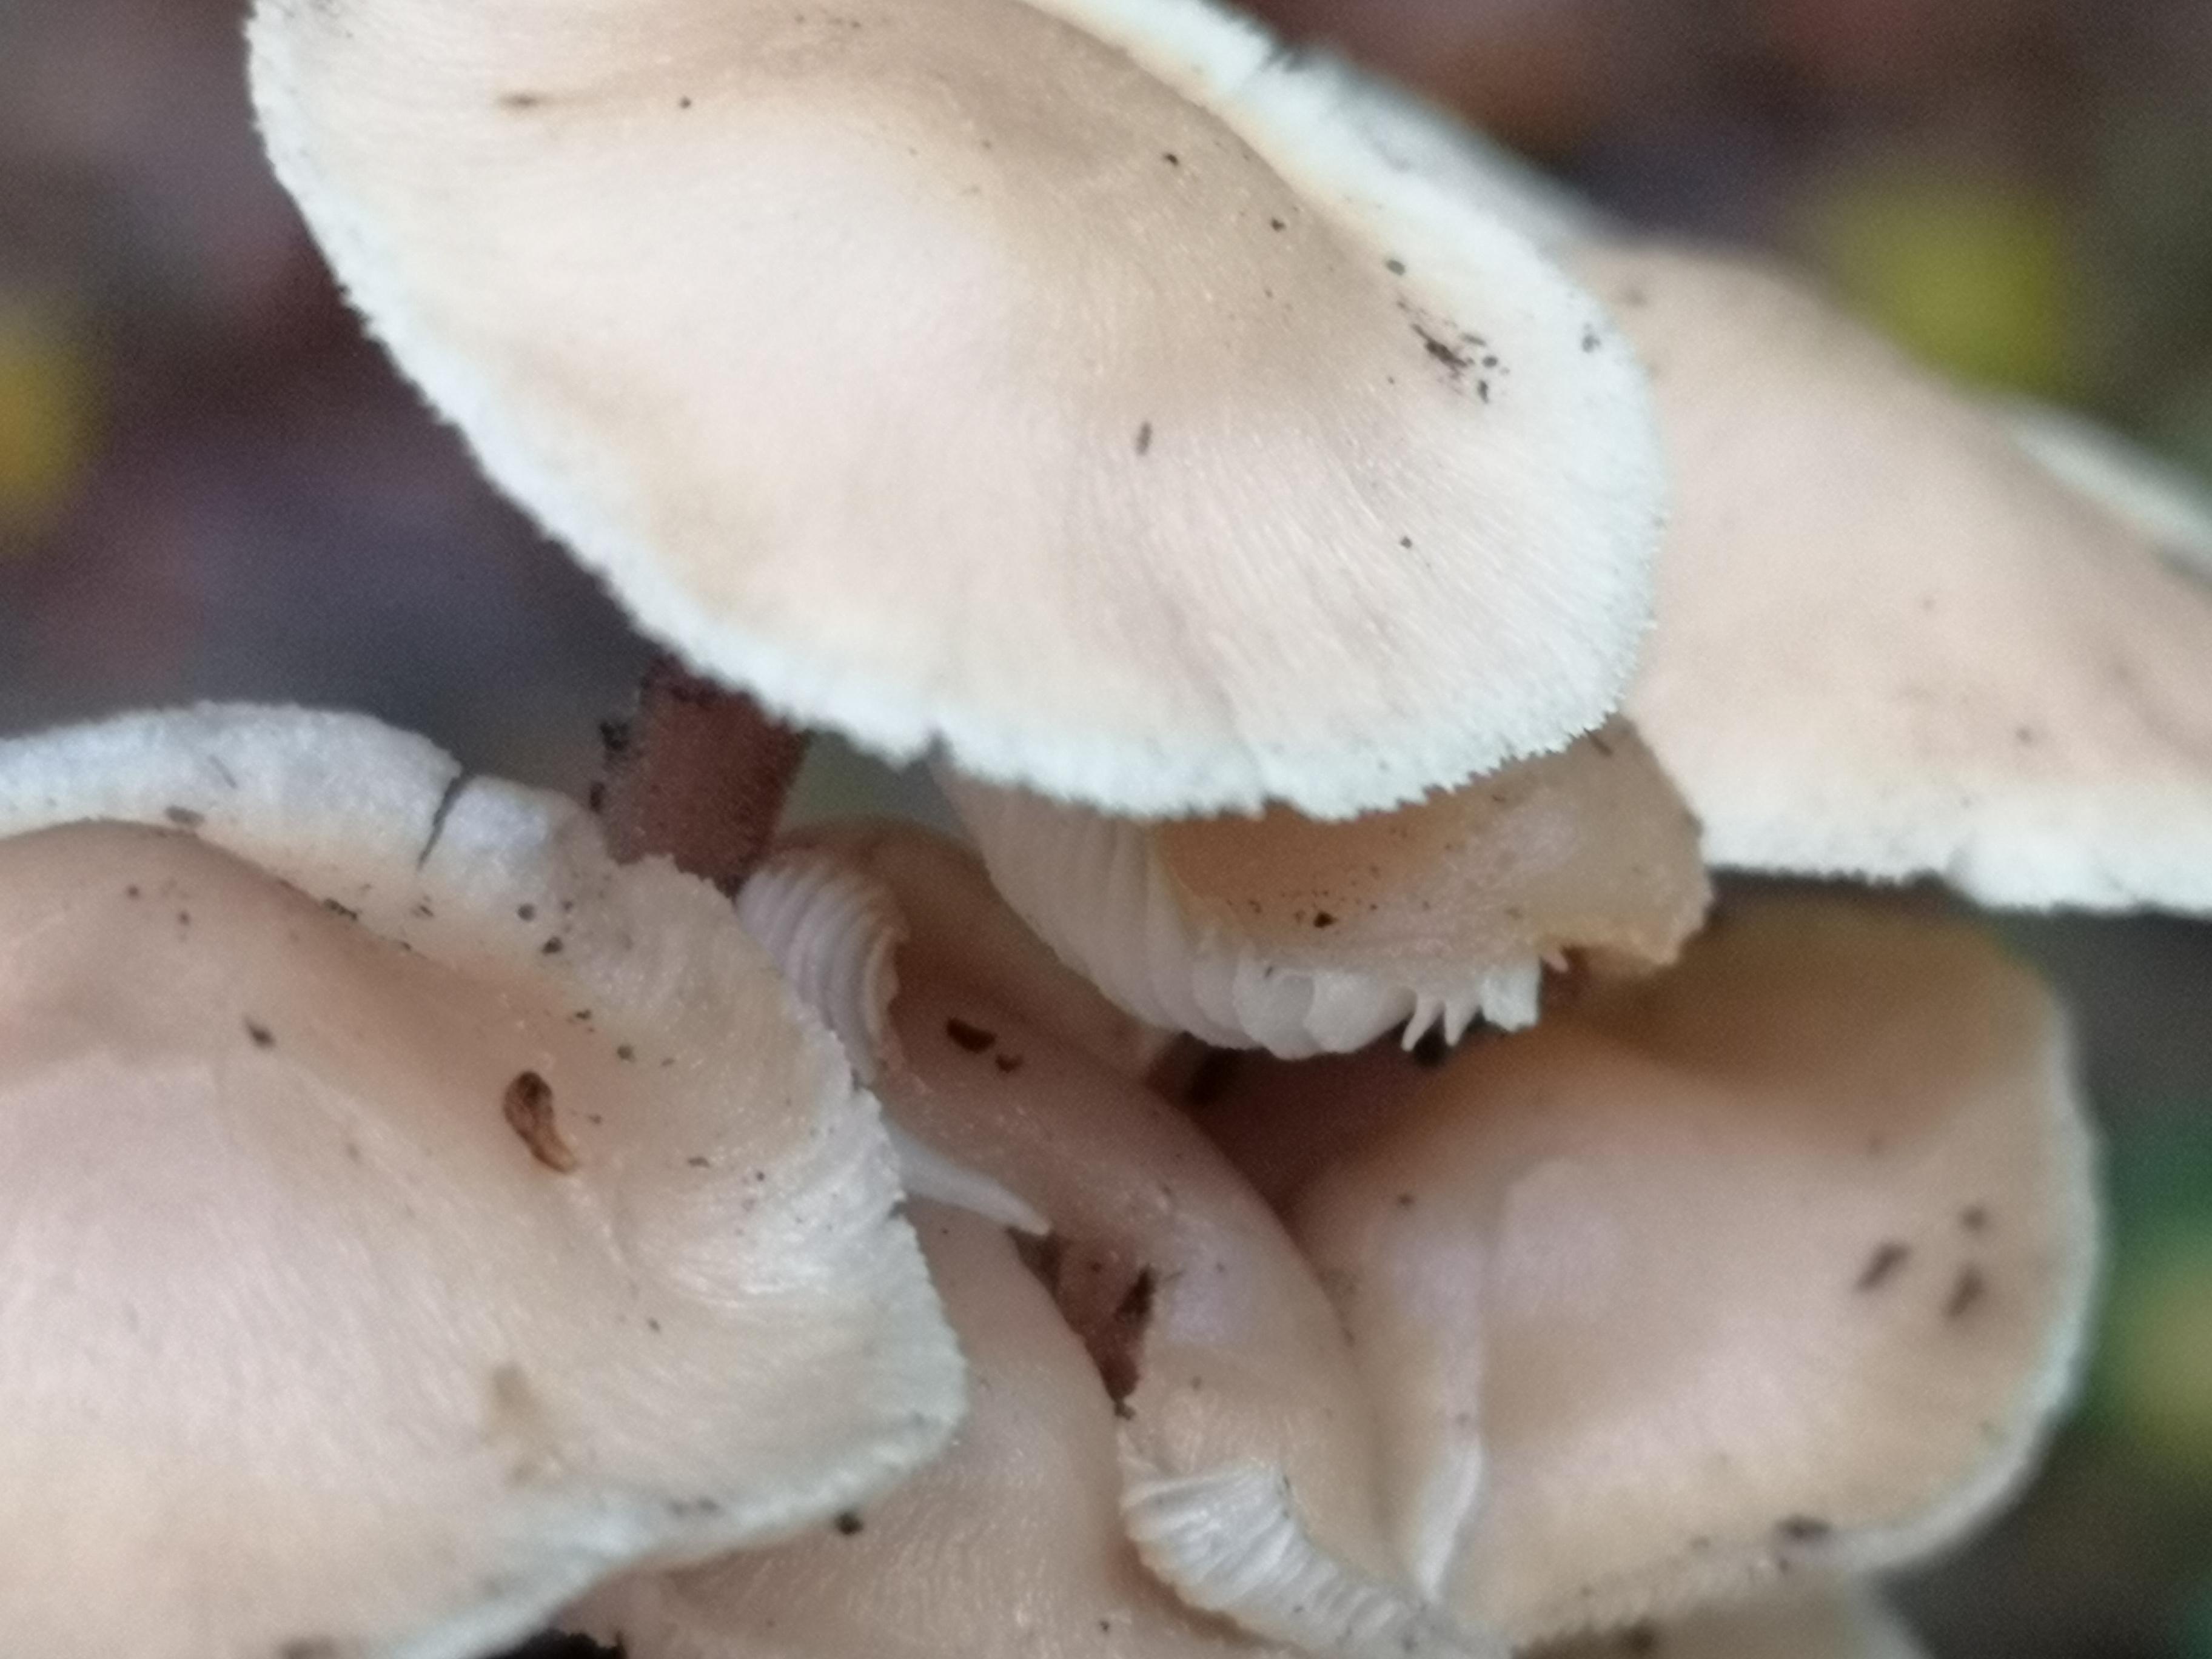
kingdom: Fungi
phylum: Basidiomycota
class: Agaricomycetes
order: Agaricales
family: Omphalotaceae
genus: Collybiopsis
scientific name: Collybiopsis confluens
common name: knippe-fladhat
